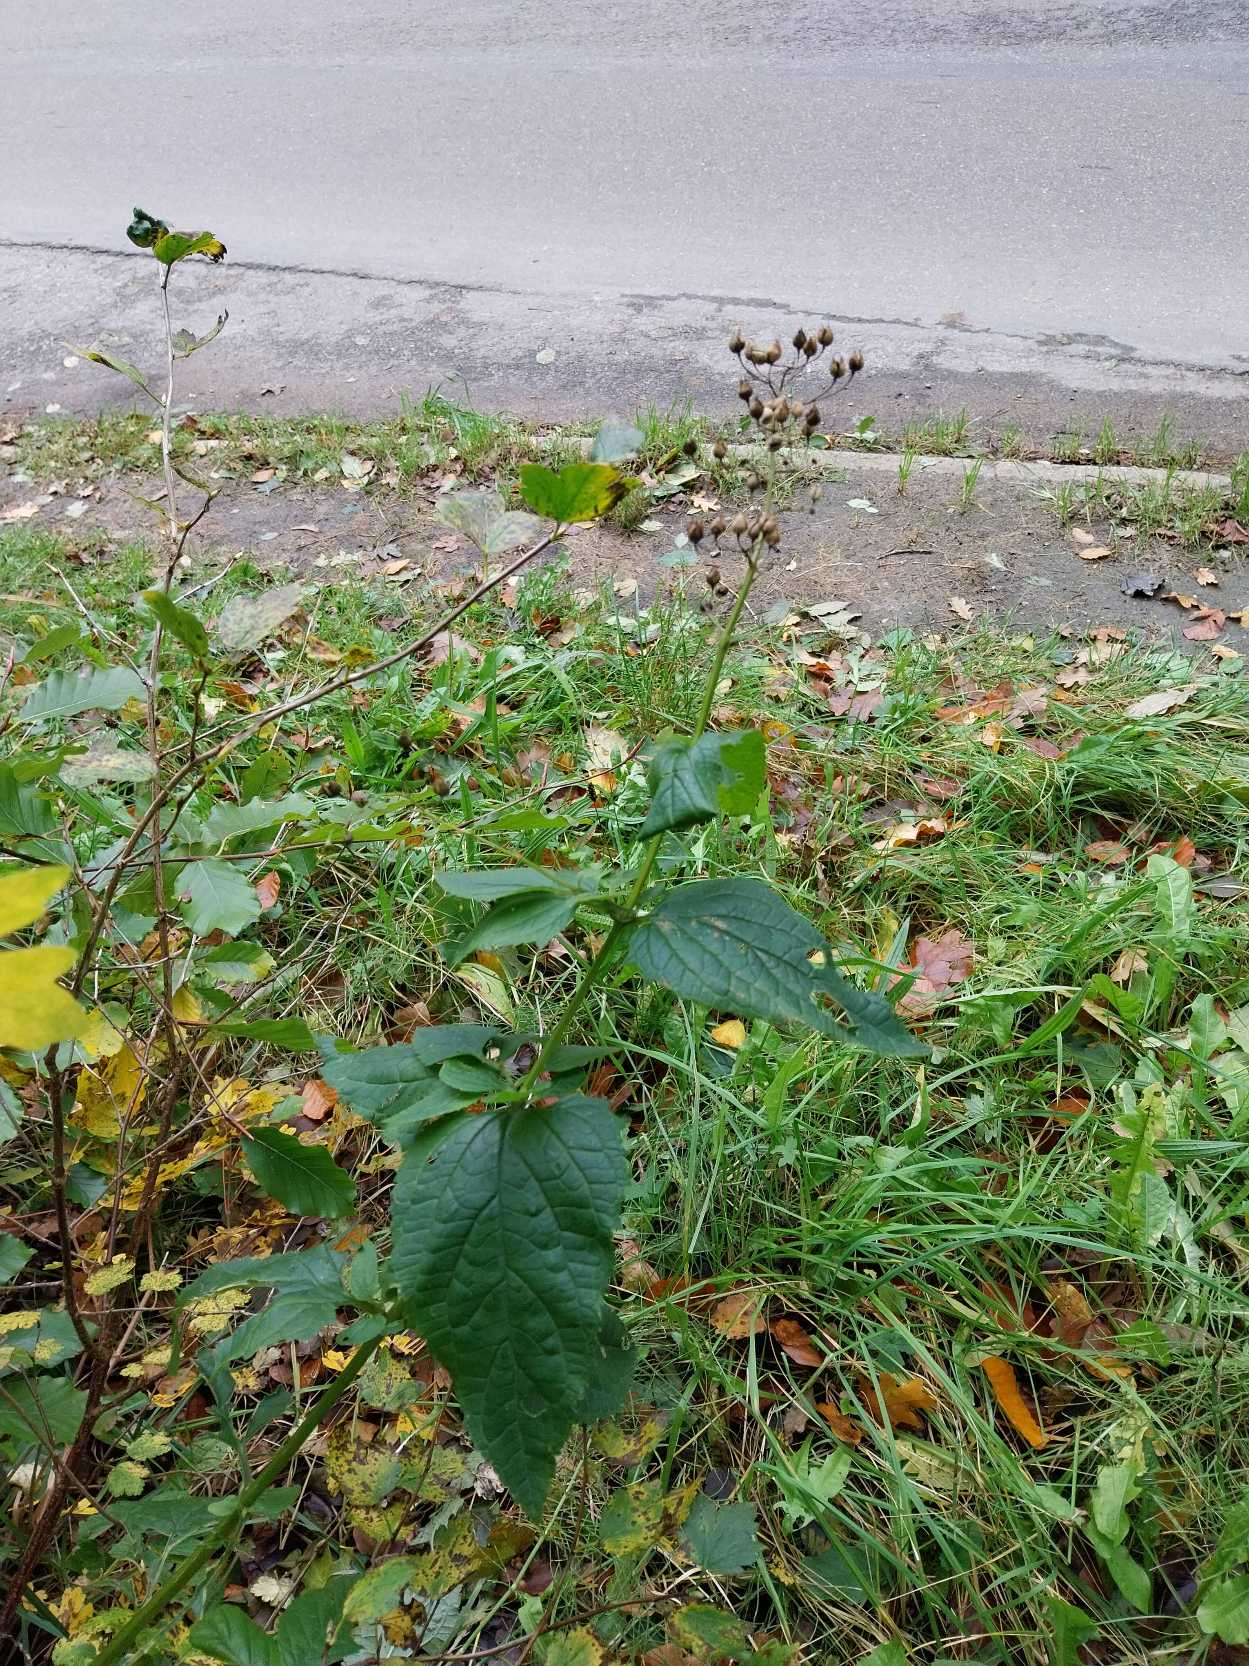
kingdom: Plantae
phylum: Tracheophyta
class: Magnoliopsida
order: Lamiales
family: Scrophulariaceae
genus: Scrophularia
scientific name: Scrophularia nodosa
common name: Knoldet brunrod
